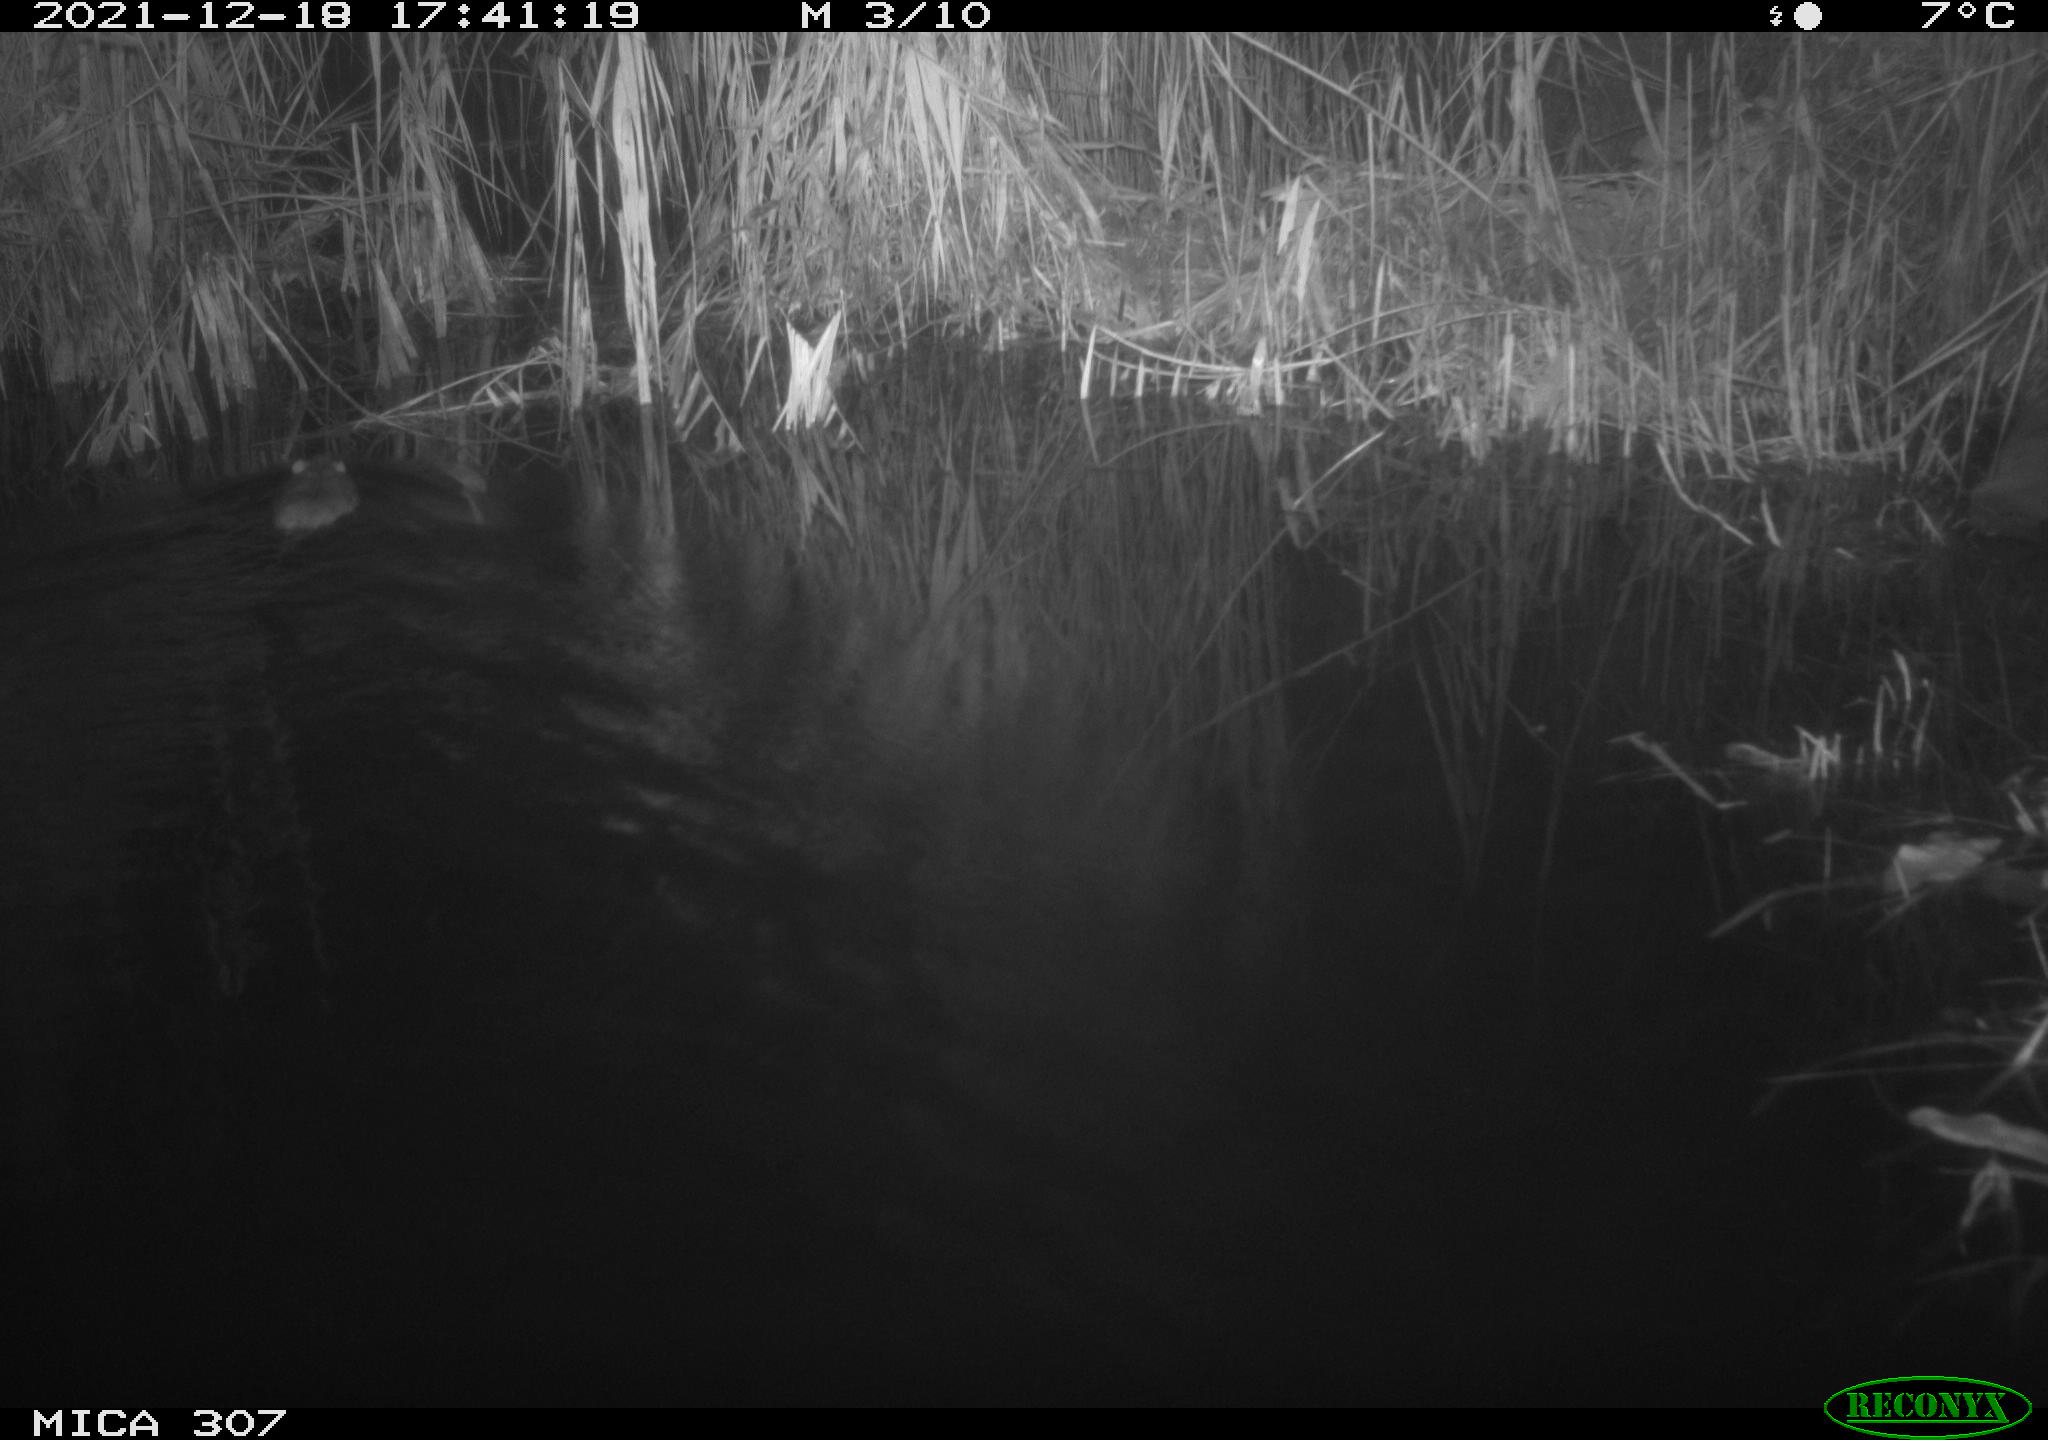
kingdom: Animalia
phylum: Chordata
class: Mammalia
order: Rodentia
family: Muridae
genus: Rattus
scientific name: Rattus norvegicus
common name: Brown rat
